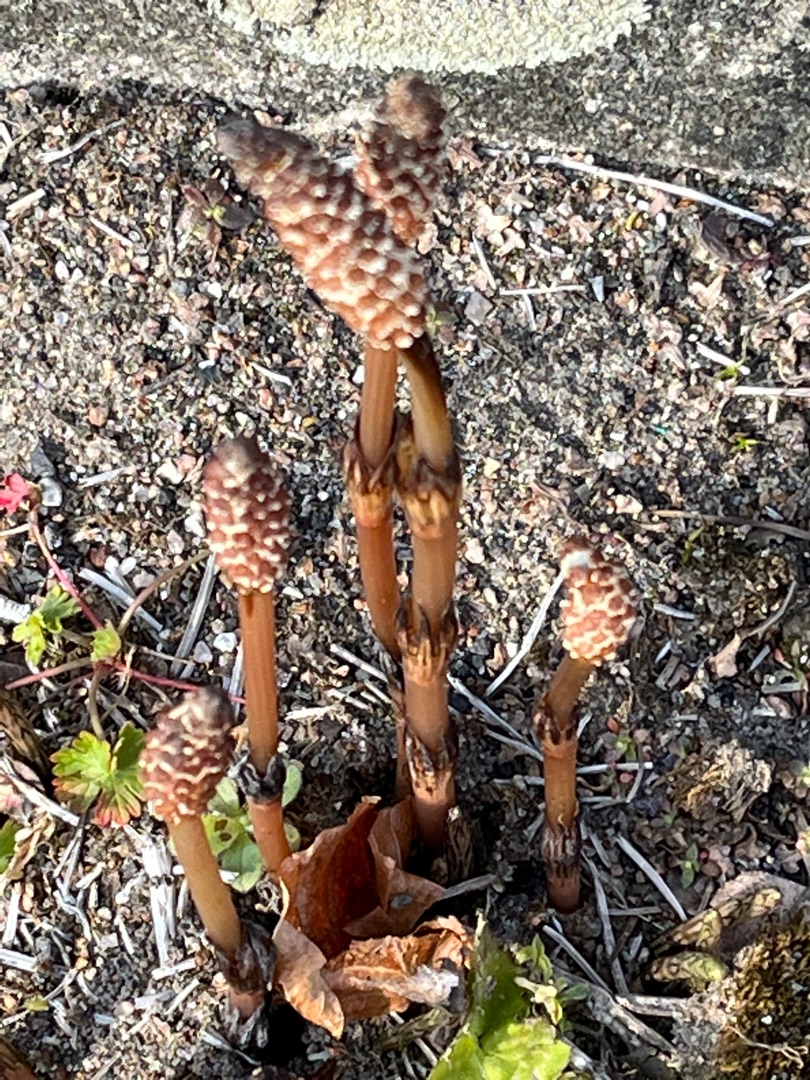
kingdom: Plantae
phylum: Tracheophyta
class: Polypodiopsida
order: Equisetales
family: Equisetaceae
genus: Equisetum
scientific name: Equisetum arvense
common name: Ager-padderok
